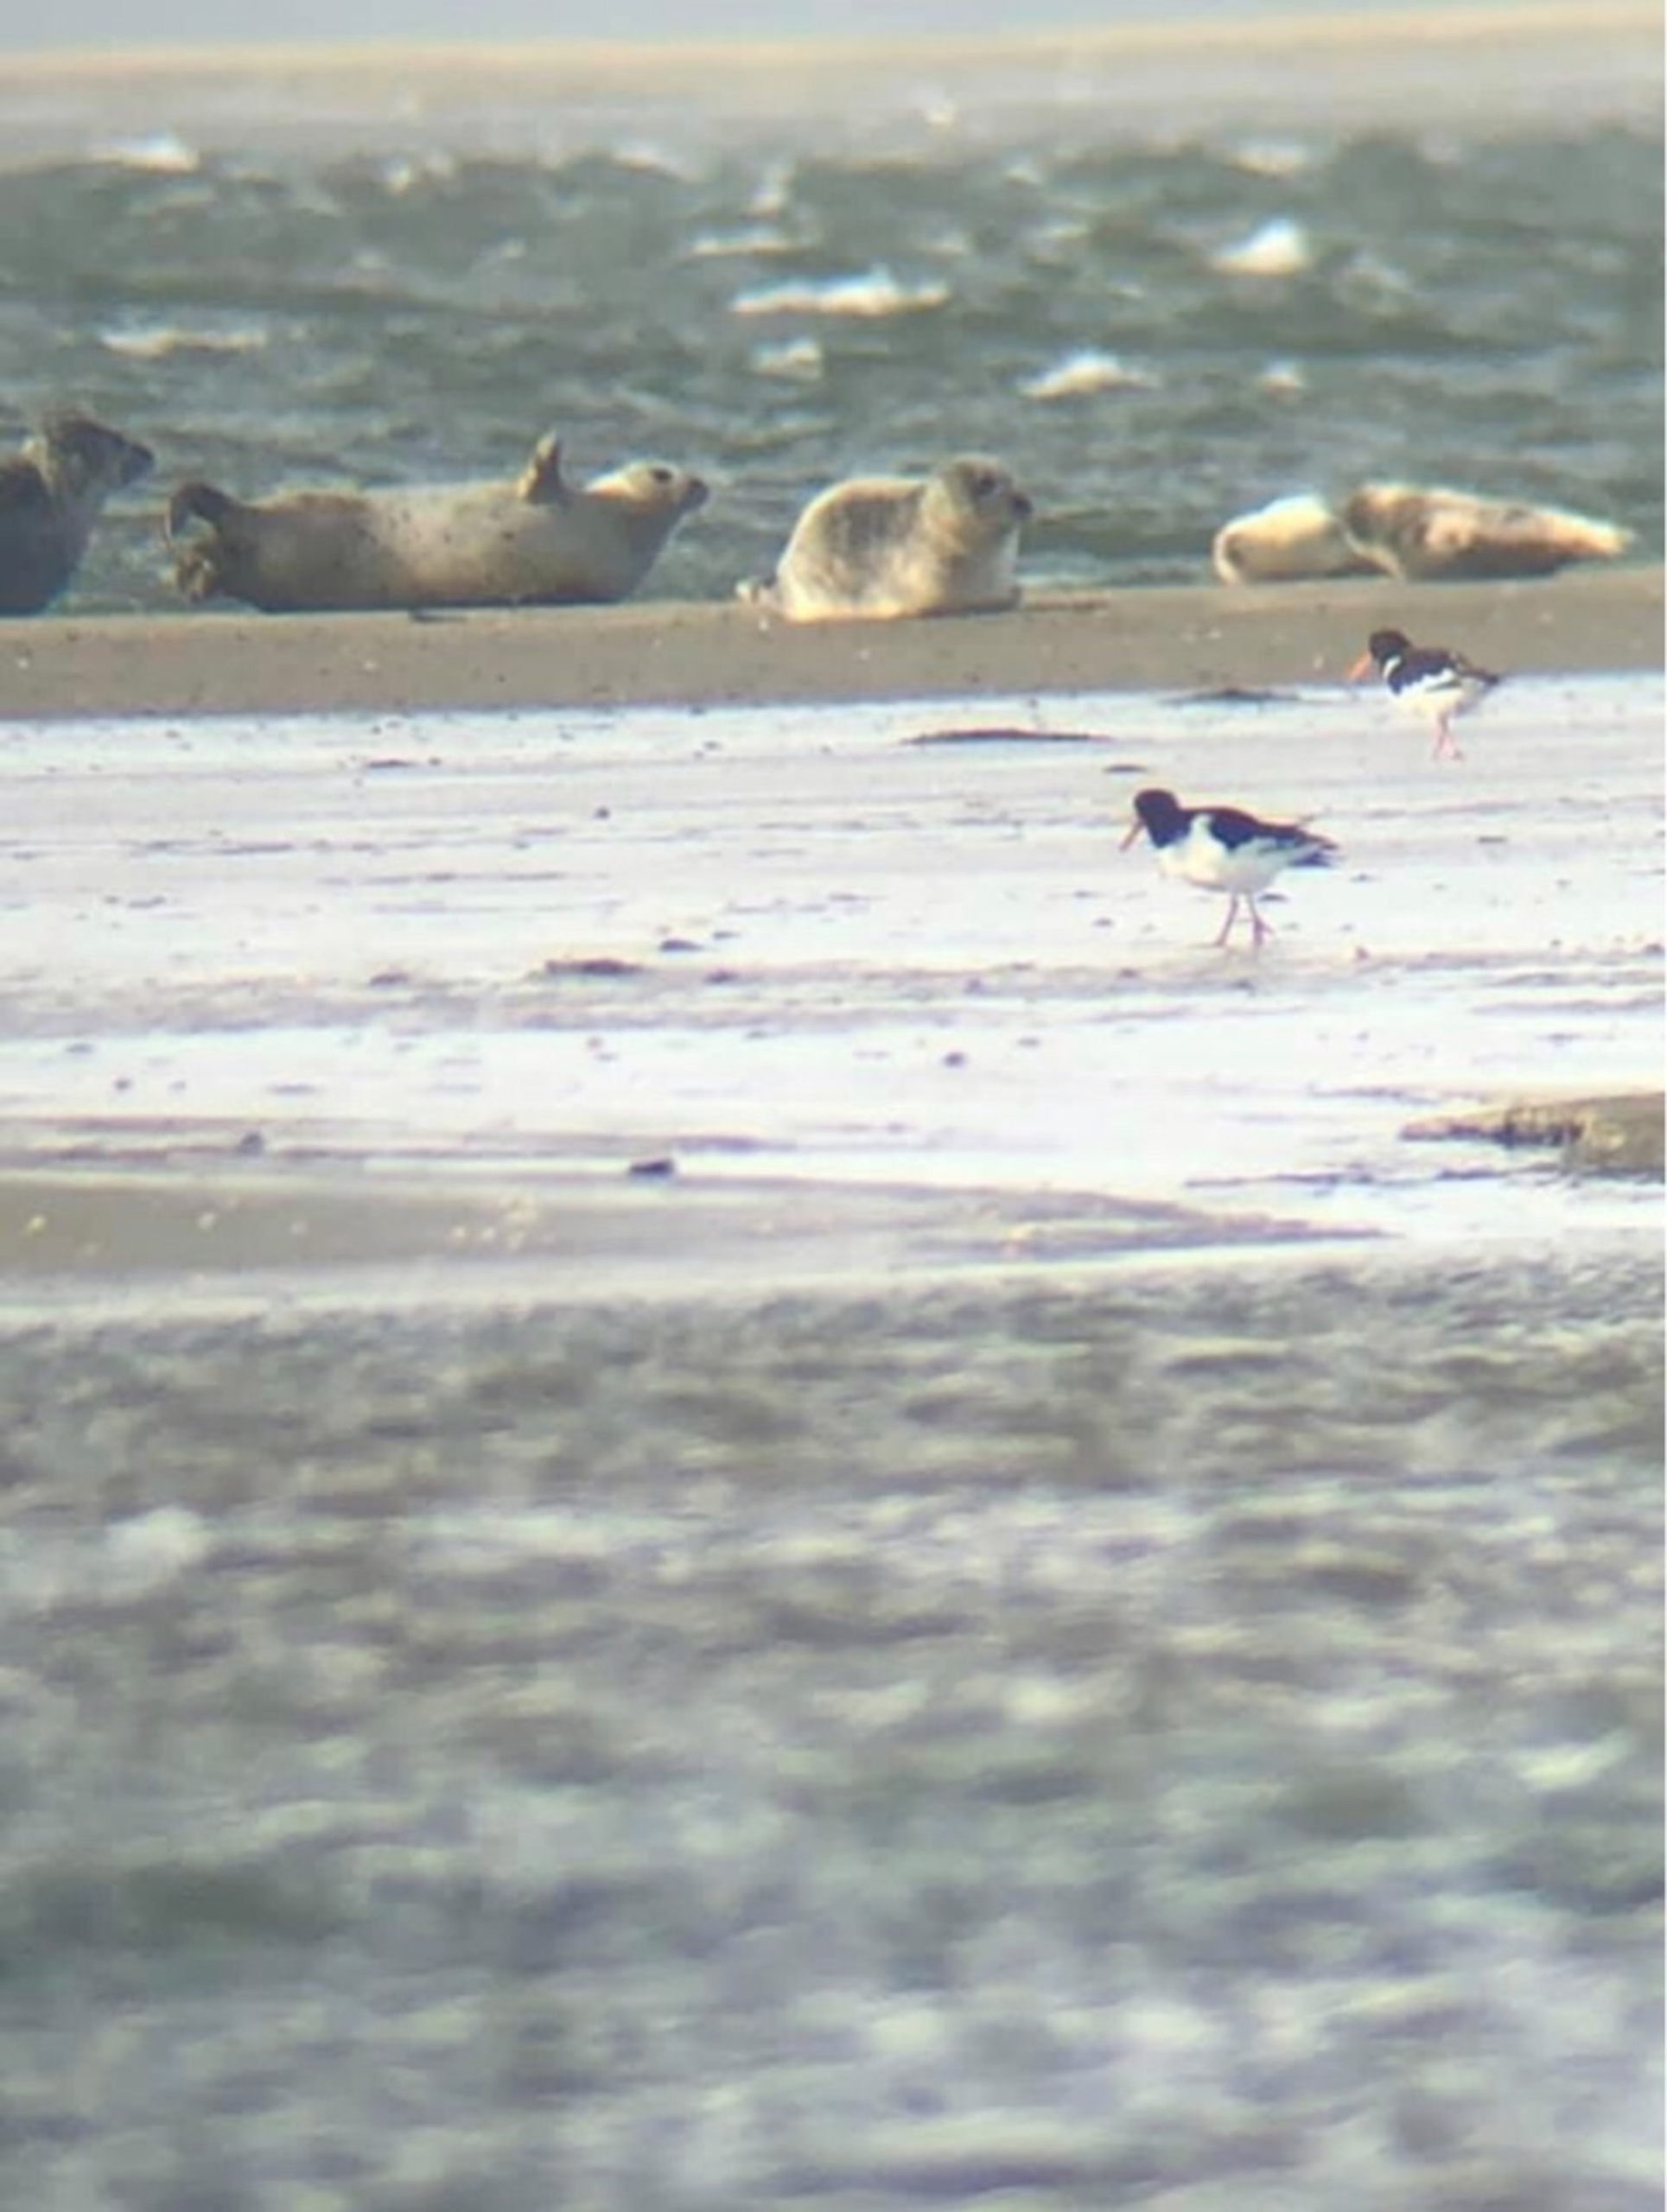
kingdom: Animalia
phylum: Chordata
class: Mammalia
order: Carnivora
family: Phocidae
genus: Phoca
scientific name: Phoca vitulina
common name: Spættet sæl
